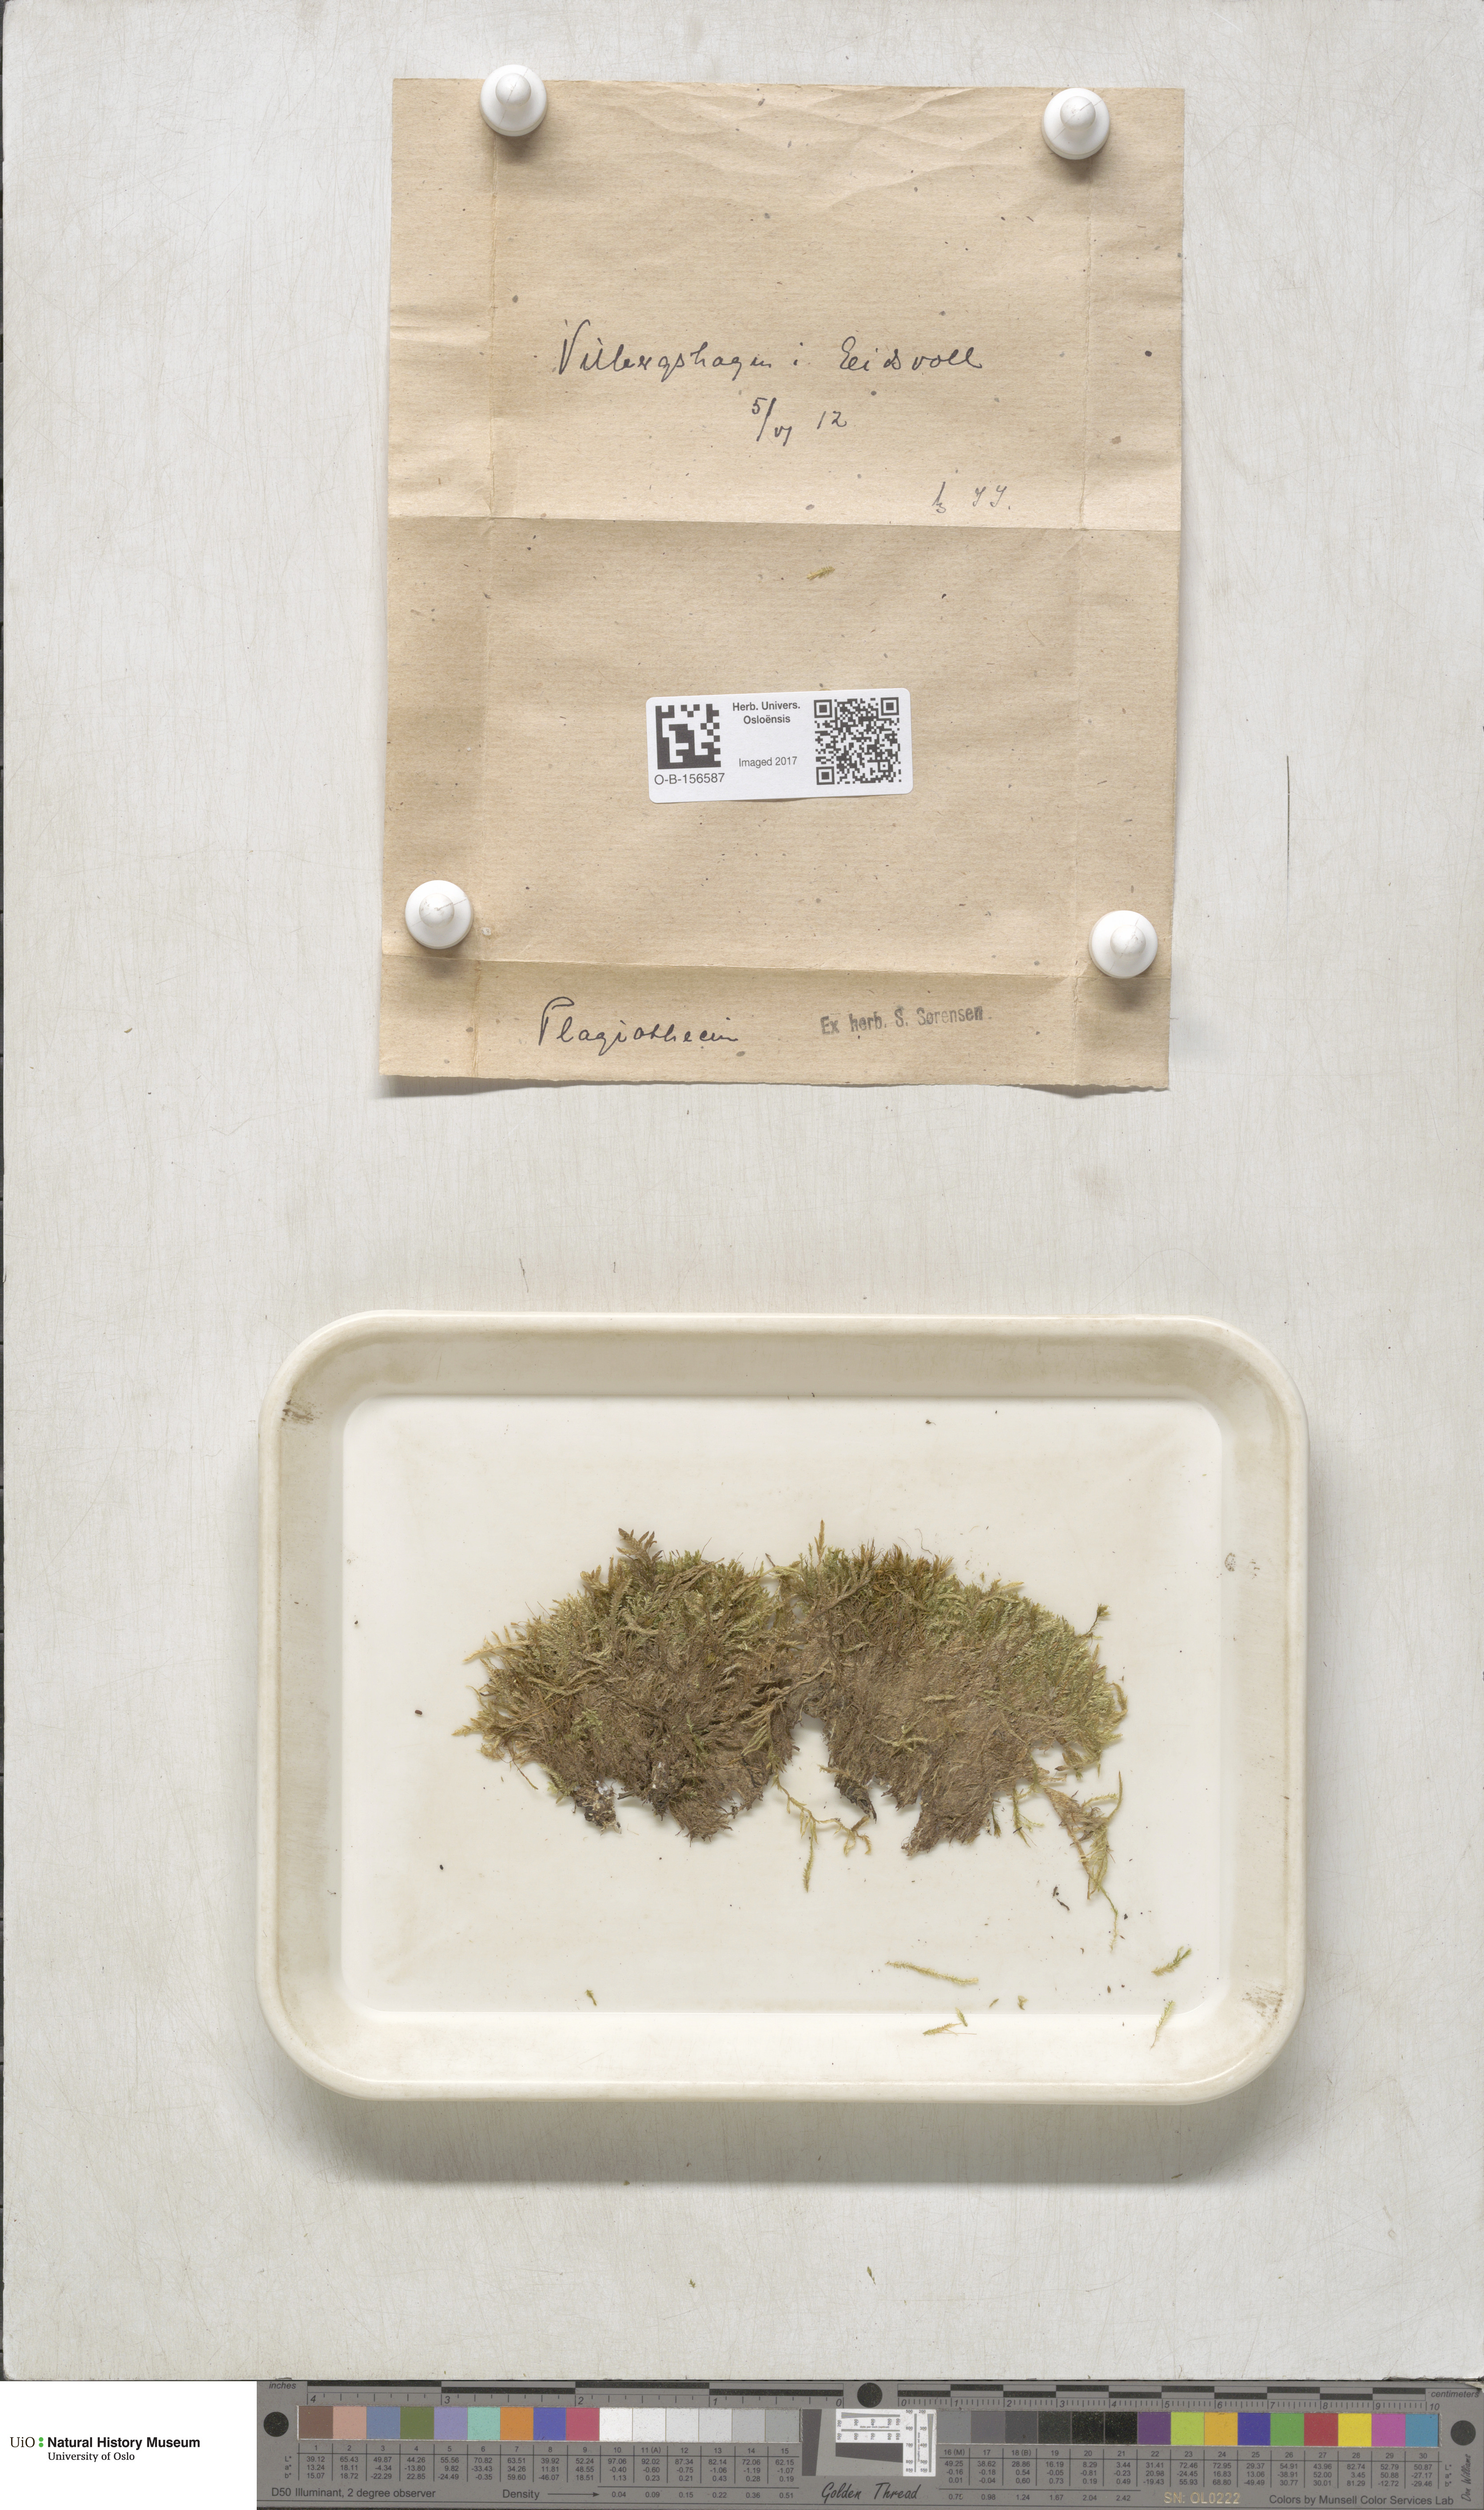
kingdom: Plantae
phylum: Bryophyta
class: Bryopsida
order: Hypnales
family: Plagiotheciaceae
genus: Plagiothecium
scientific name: Plagiothecium
